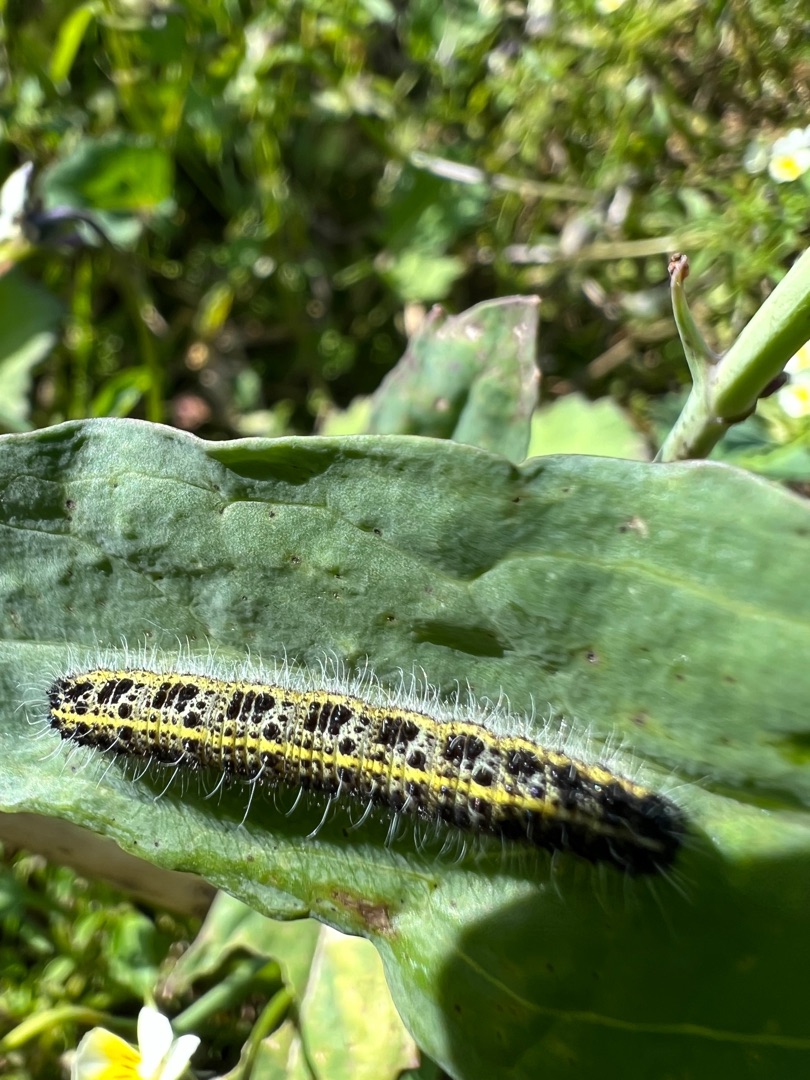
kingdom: Animalia
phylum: Arthropoda
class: Insecta
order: Lepidoptera
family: Pieridae
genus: Pieris
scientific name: Pieris brassicae
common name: Stor kålsommerfugl
